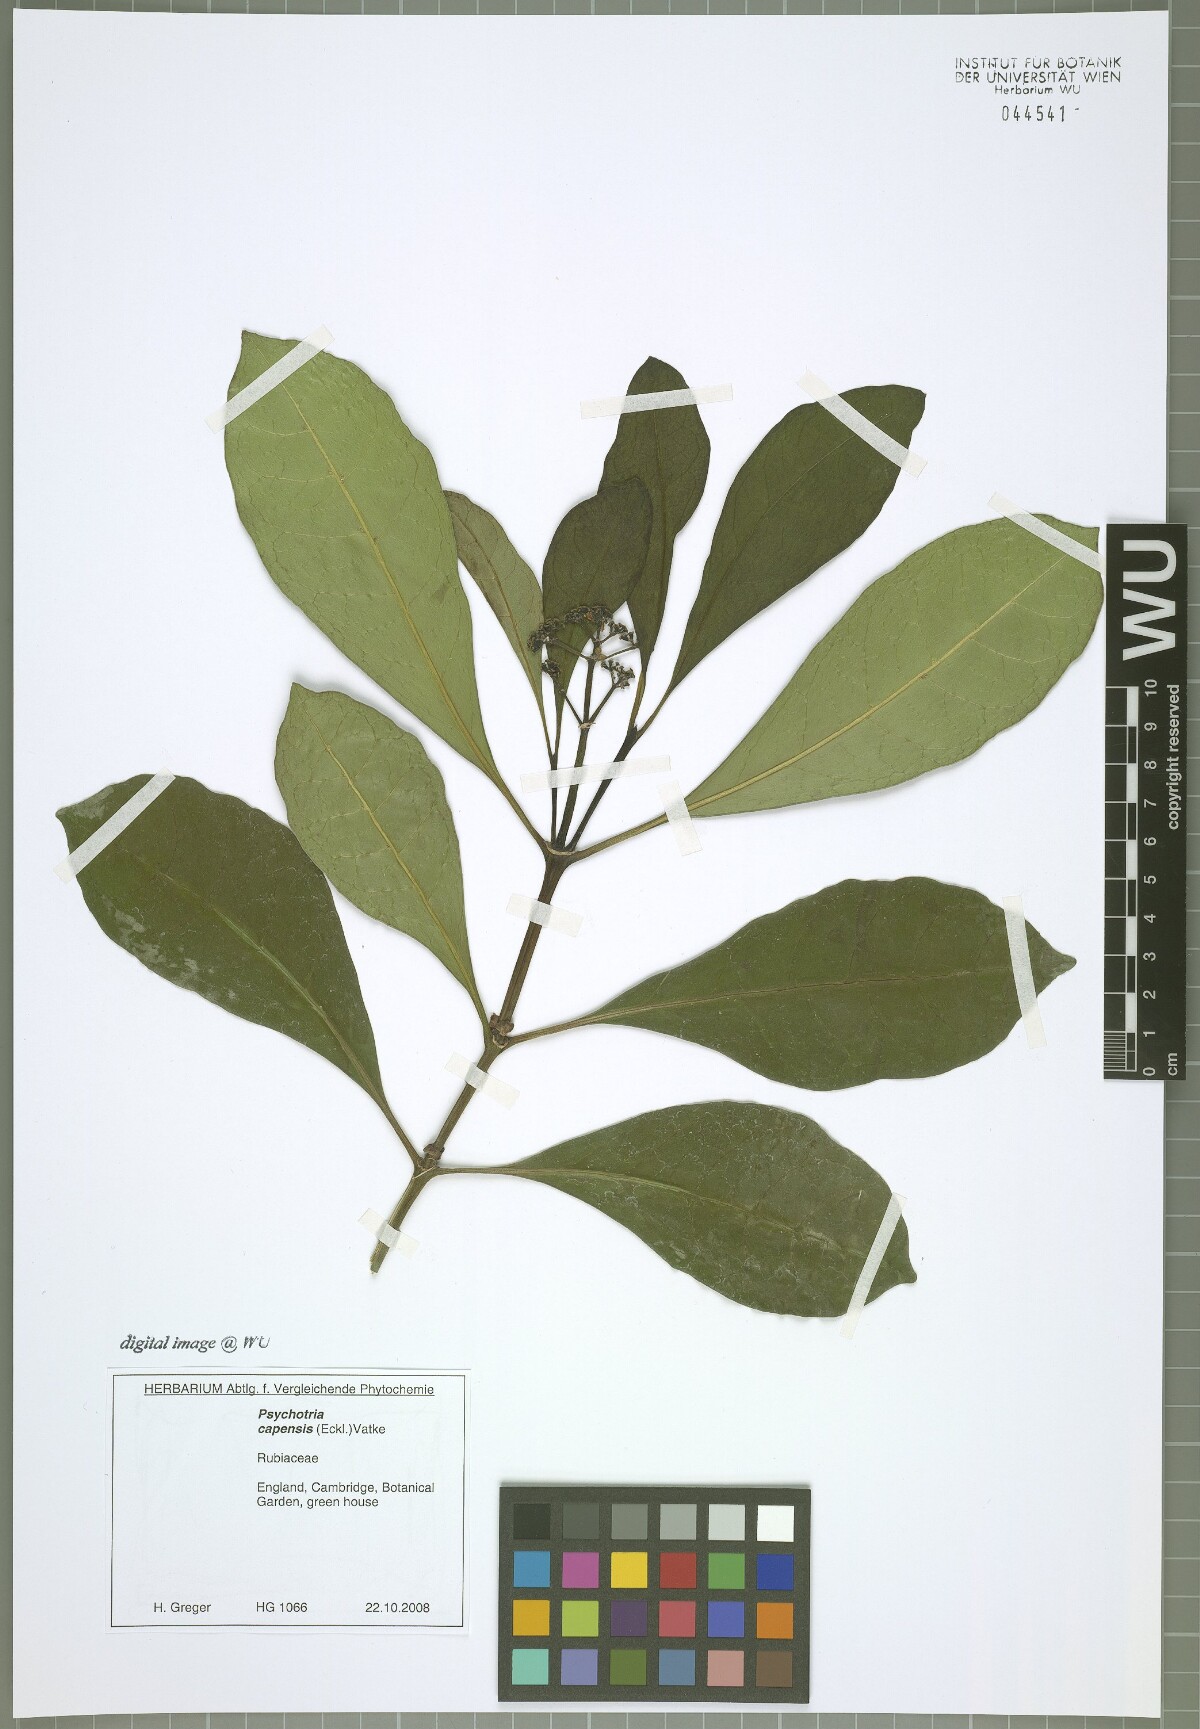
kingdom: Plantae
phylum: Tracheophyta
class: Magnoliopsida
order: Gentianales
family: Rubiaceae
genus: Psychotria
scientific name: Psychotria capensis
